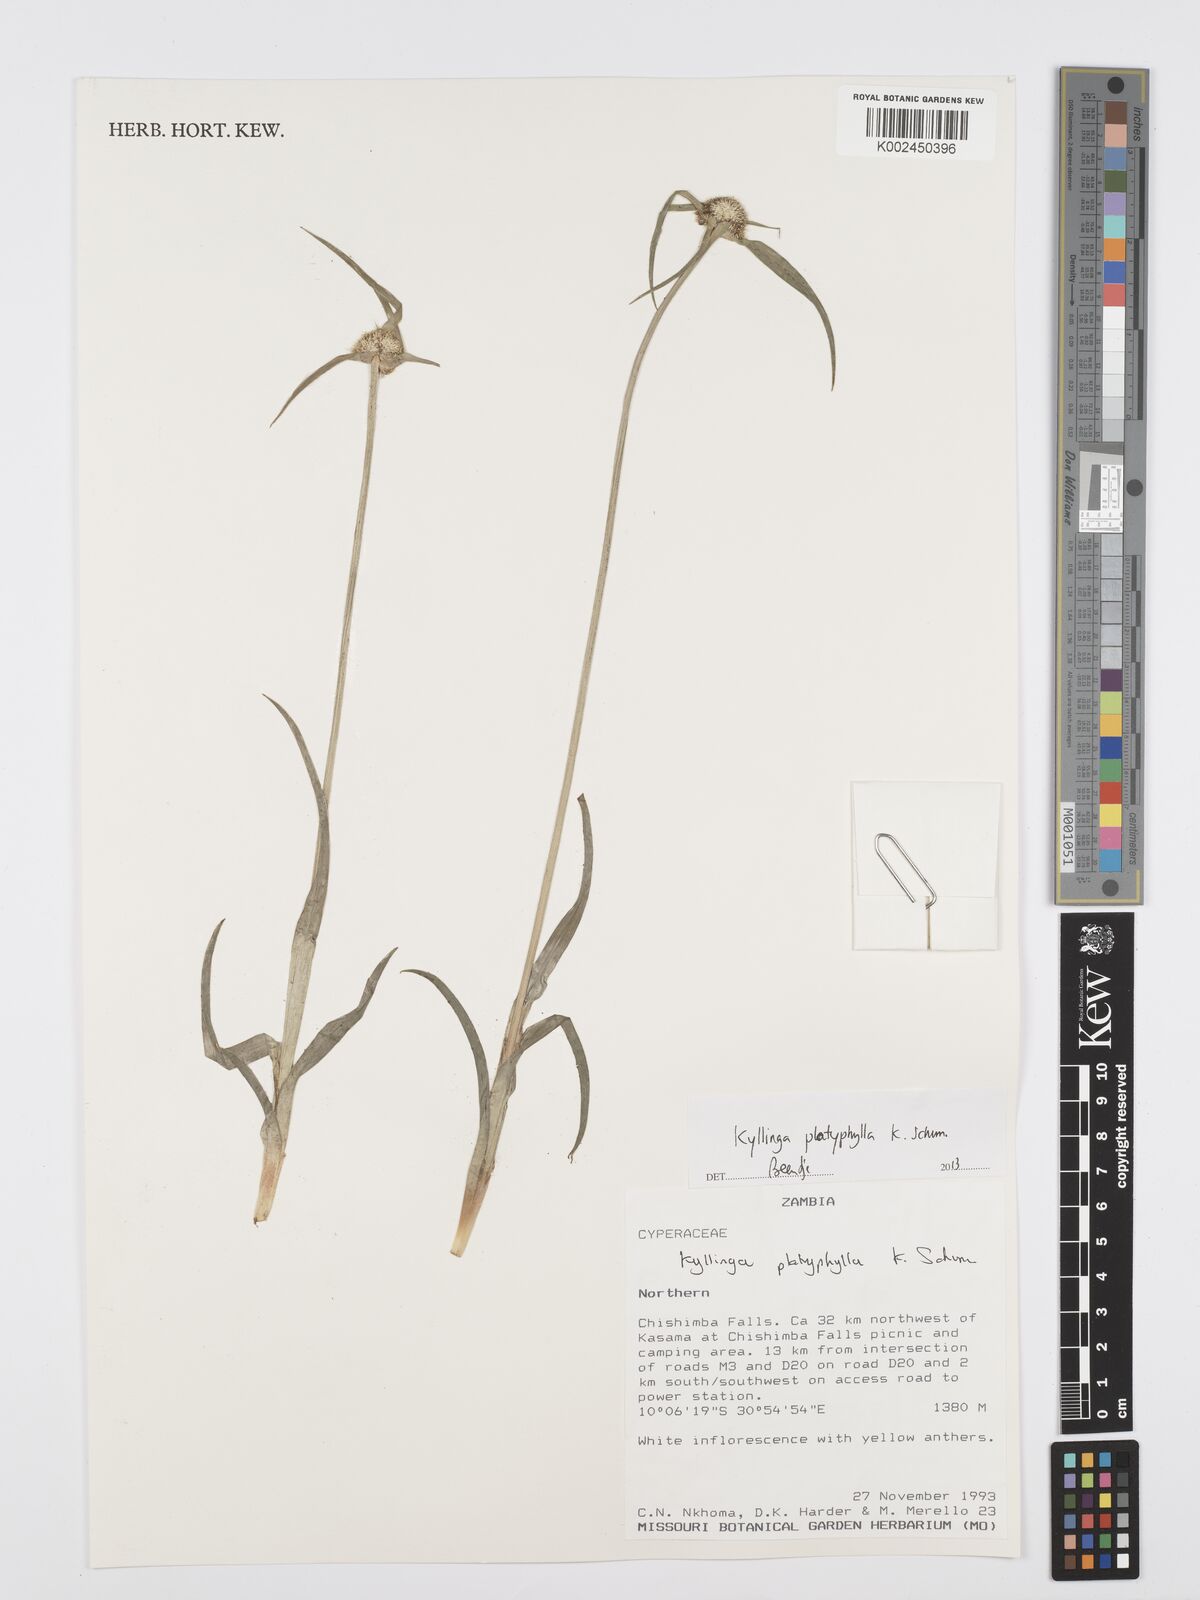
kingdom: Plantae
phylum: Tracheophyta
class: Liliopsida
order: Poales
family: Cyperaceae
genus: Cyperus
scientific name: Cyperus
